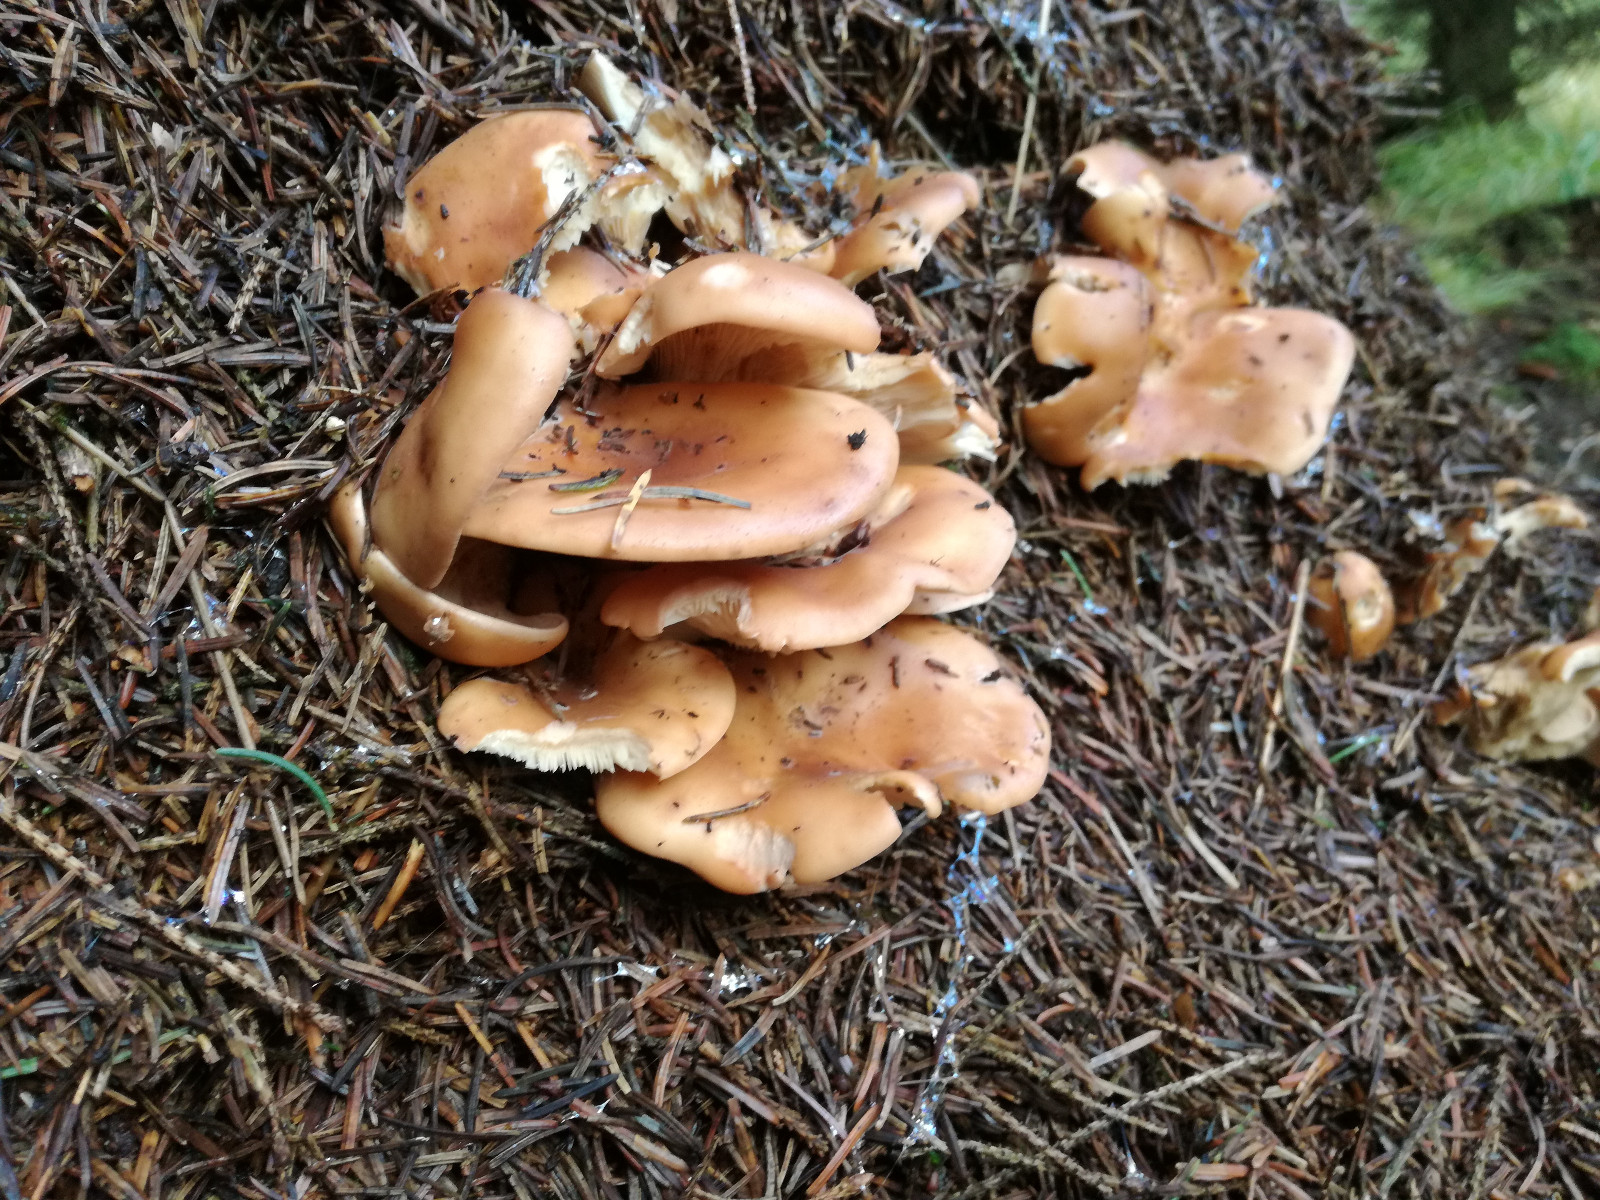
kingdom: Fungi
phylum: Basidiomycota
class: Agaricomycetes
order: Agaricales
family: Tricholomataceae
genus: Paralepista
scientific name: Paralepista flaccida
